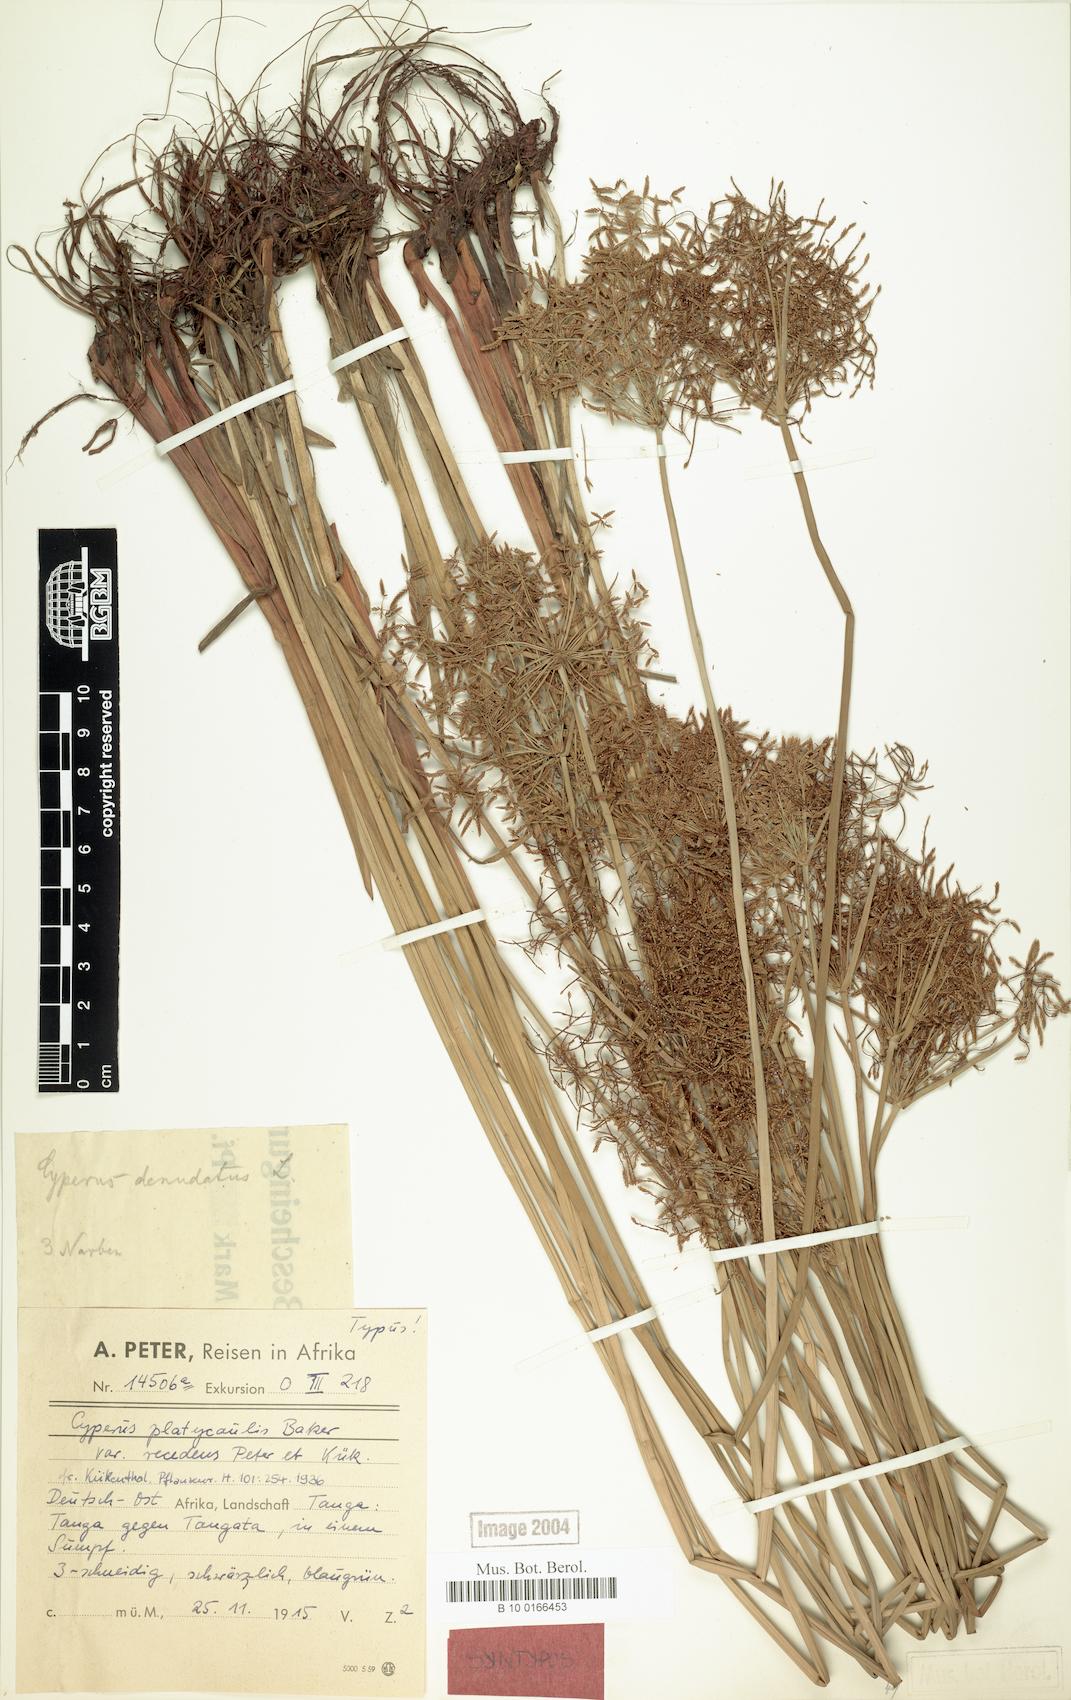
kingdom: Plantae
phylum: Tracheophyta
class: Liliopsida
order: Poales
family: Cyperaceae
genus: Cyperus
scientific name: Cyperus denudatus
